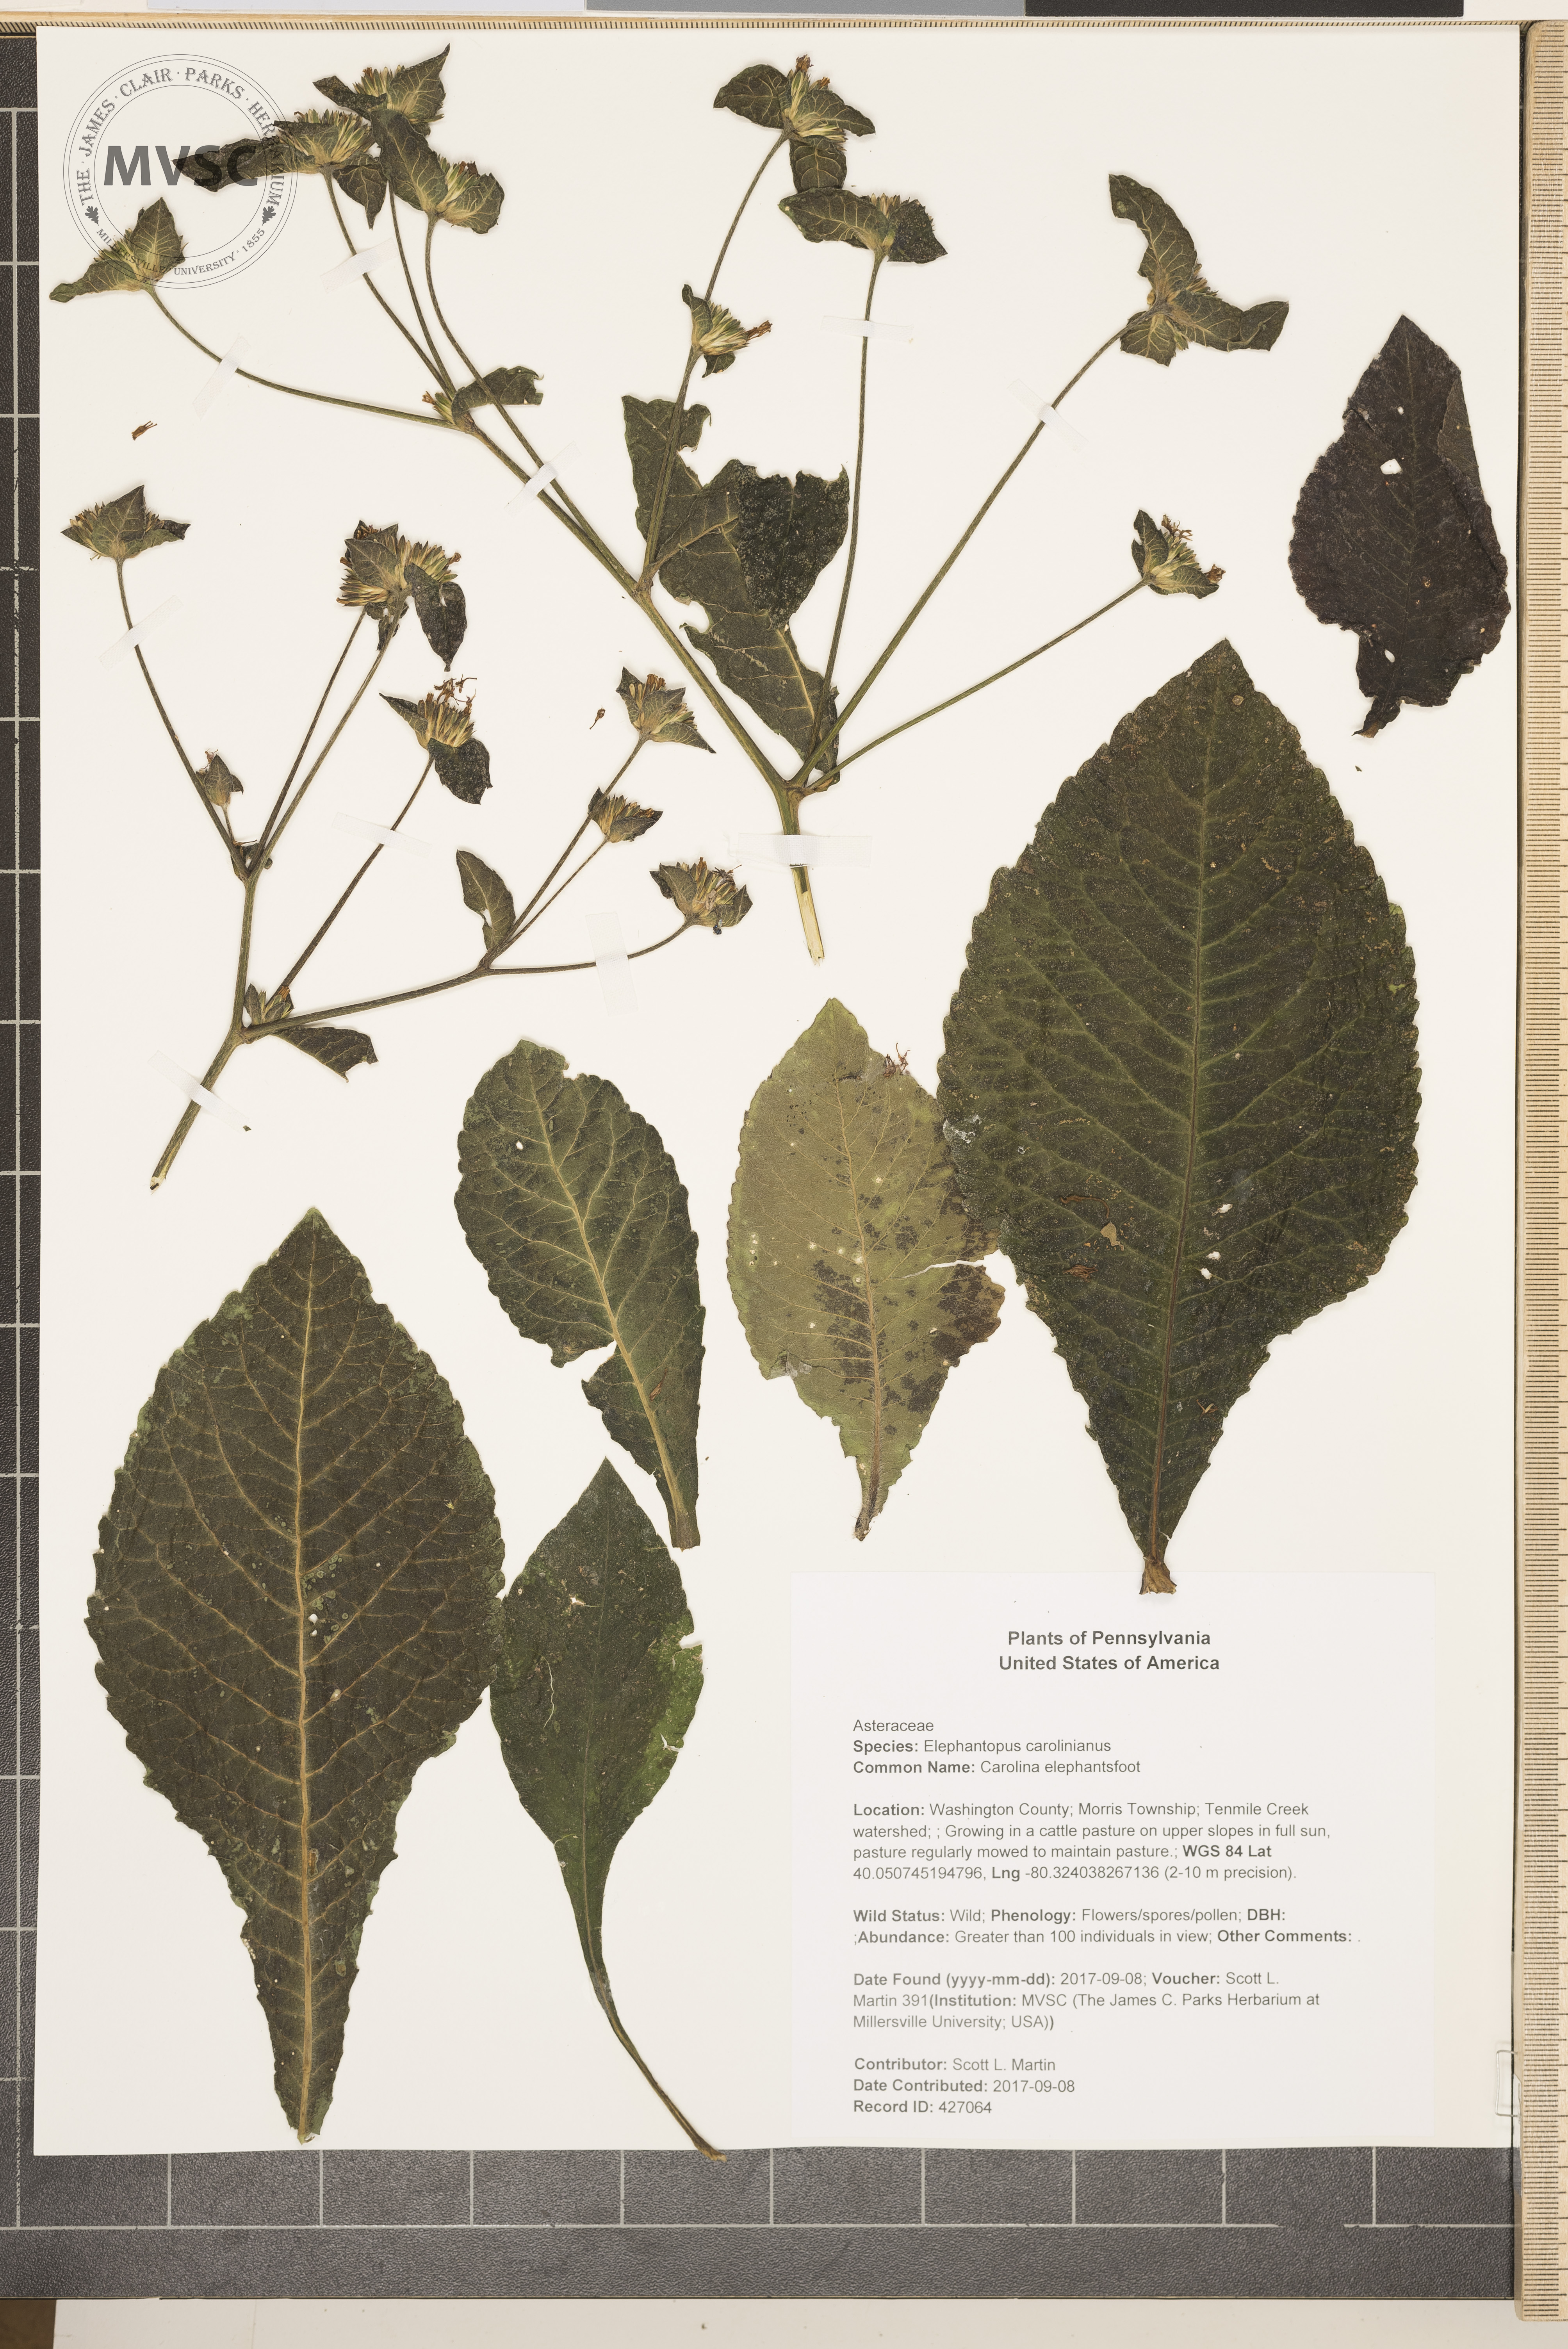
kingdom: Plantae
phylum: Tracheophyta
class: Magnoliopsida
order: Asterales
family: Asteraceae
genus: Elephantopus
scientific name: Elephantopus carolinianus
